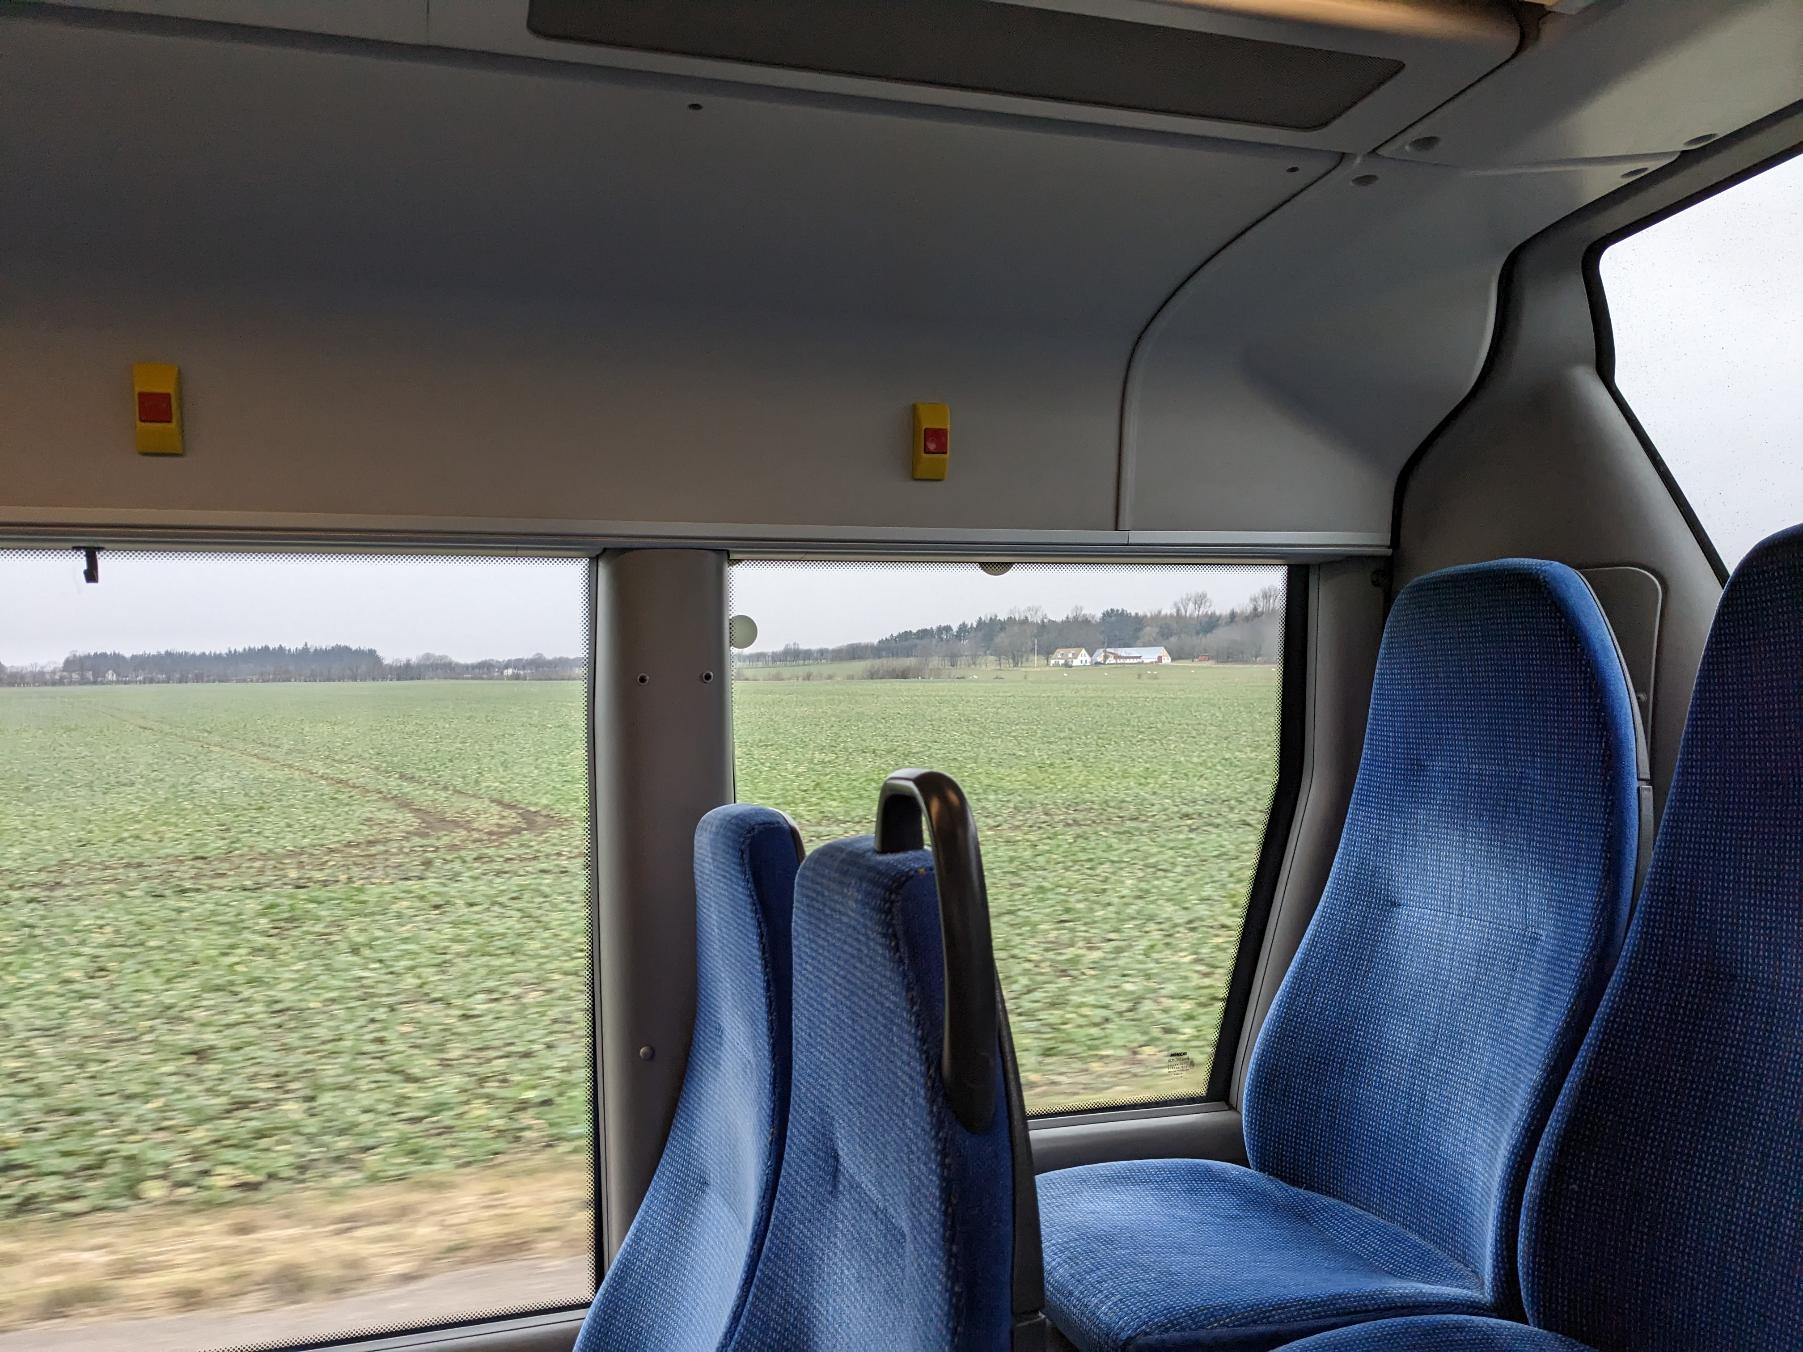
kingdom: Animalia
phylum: Chordata
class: Aves
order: Anseriformes
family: Anatidae
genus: Cygnus
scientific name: Cygnus olor
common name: Knopsvane
